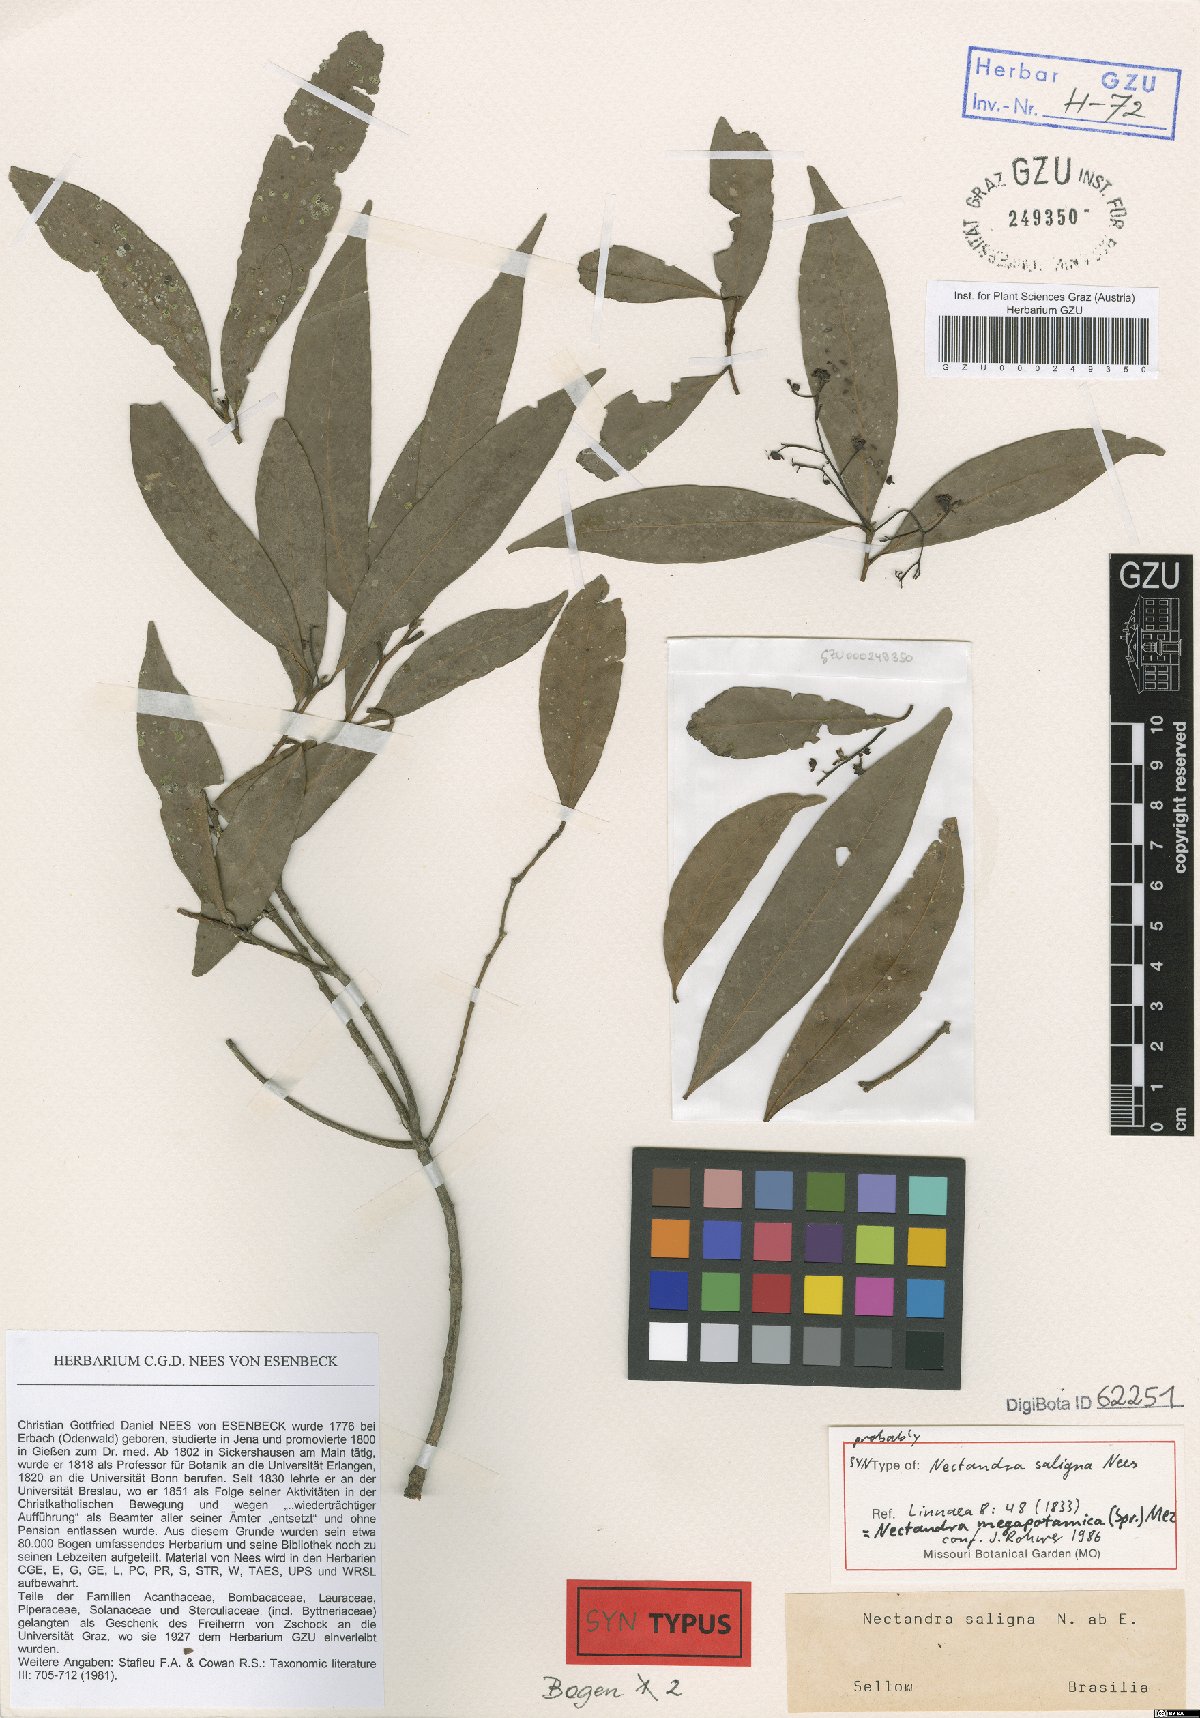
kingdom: Plantae
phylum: Tracheophyta
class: Magnoliopsida
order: Laurales
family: Lauraceae
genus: Nectandra
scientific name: Nectandra megapotamica
